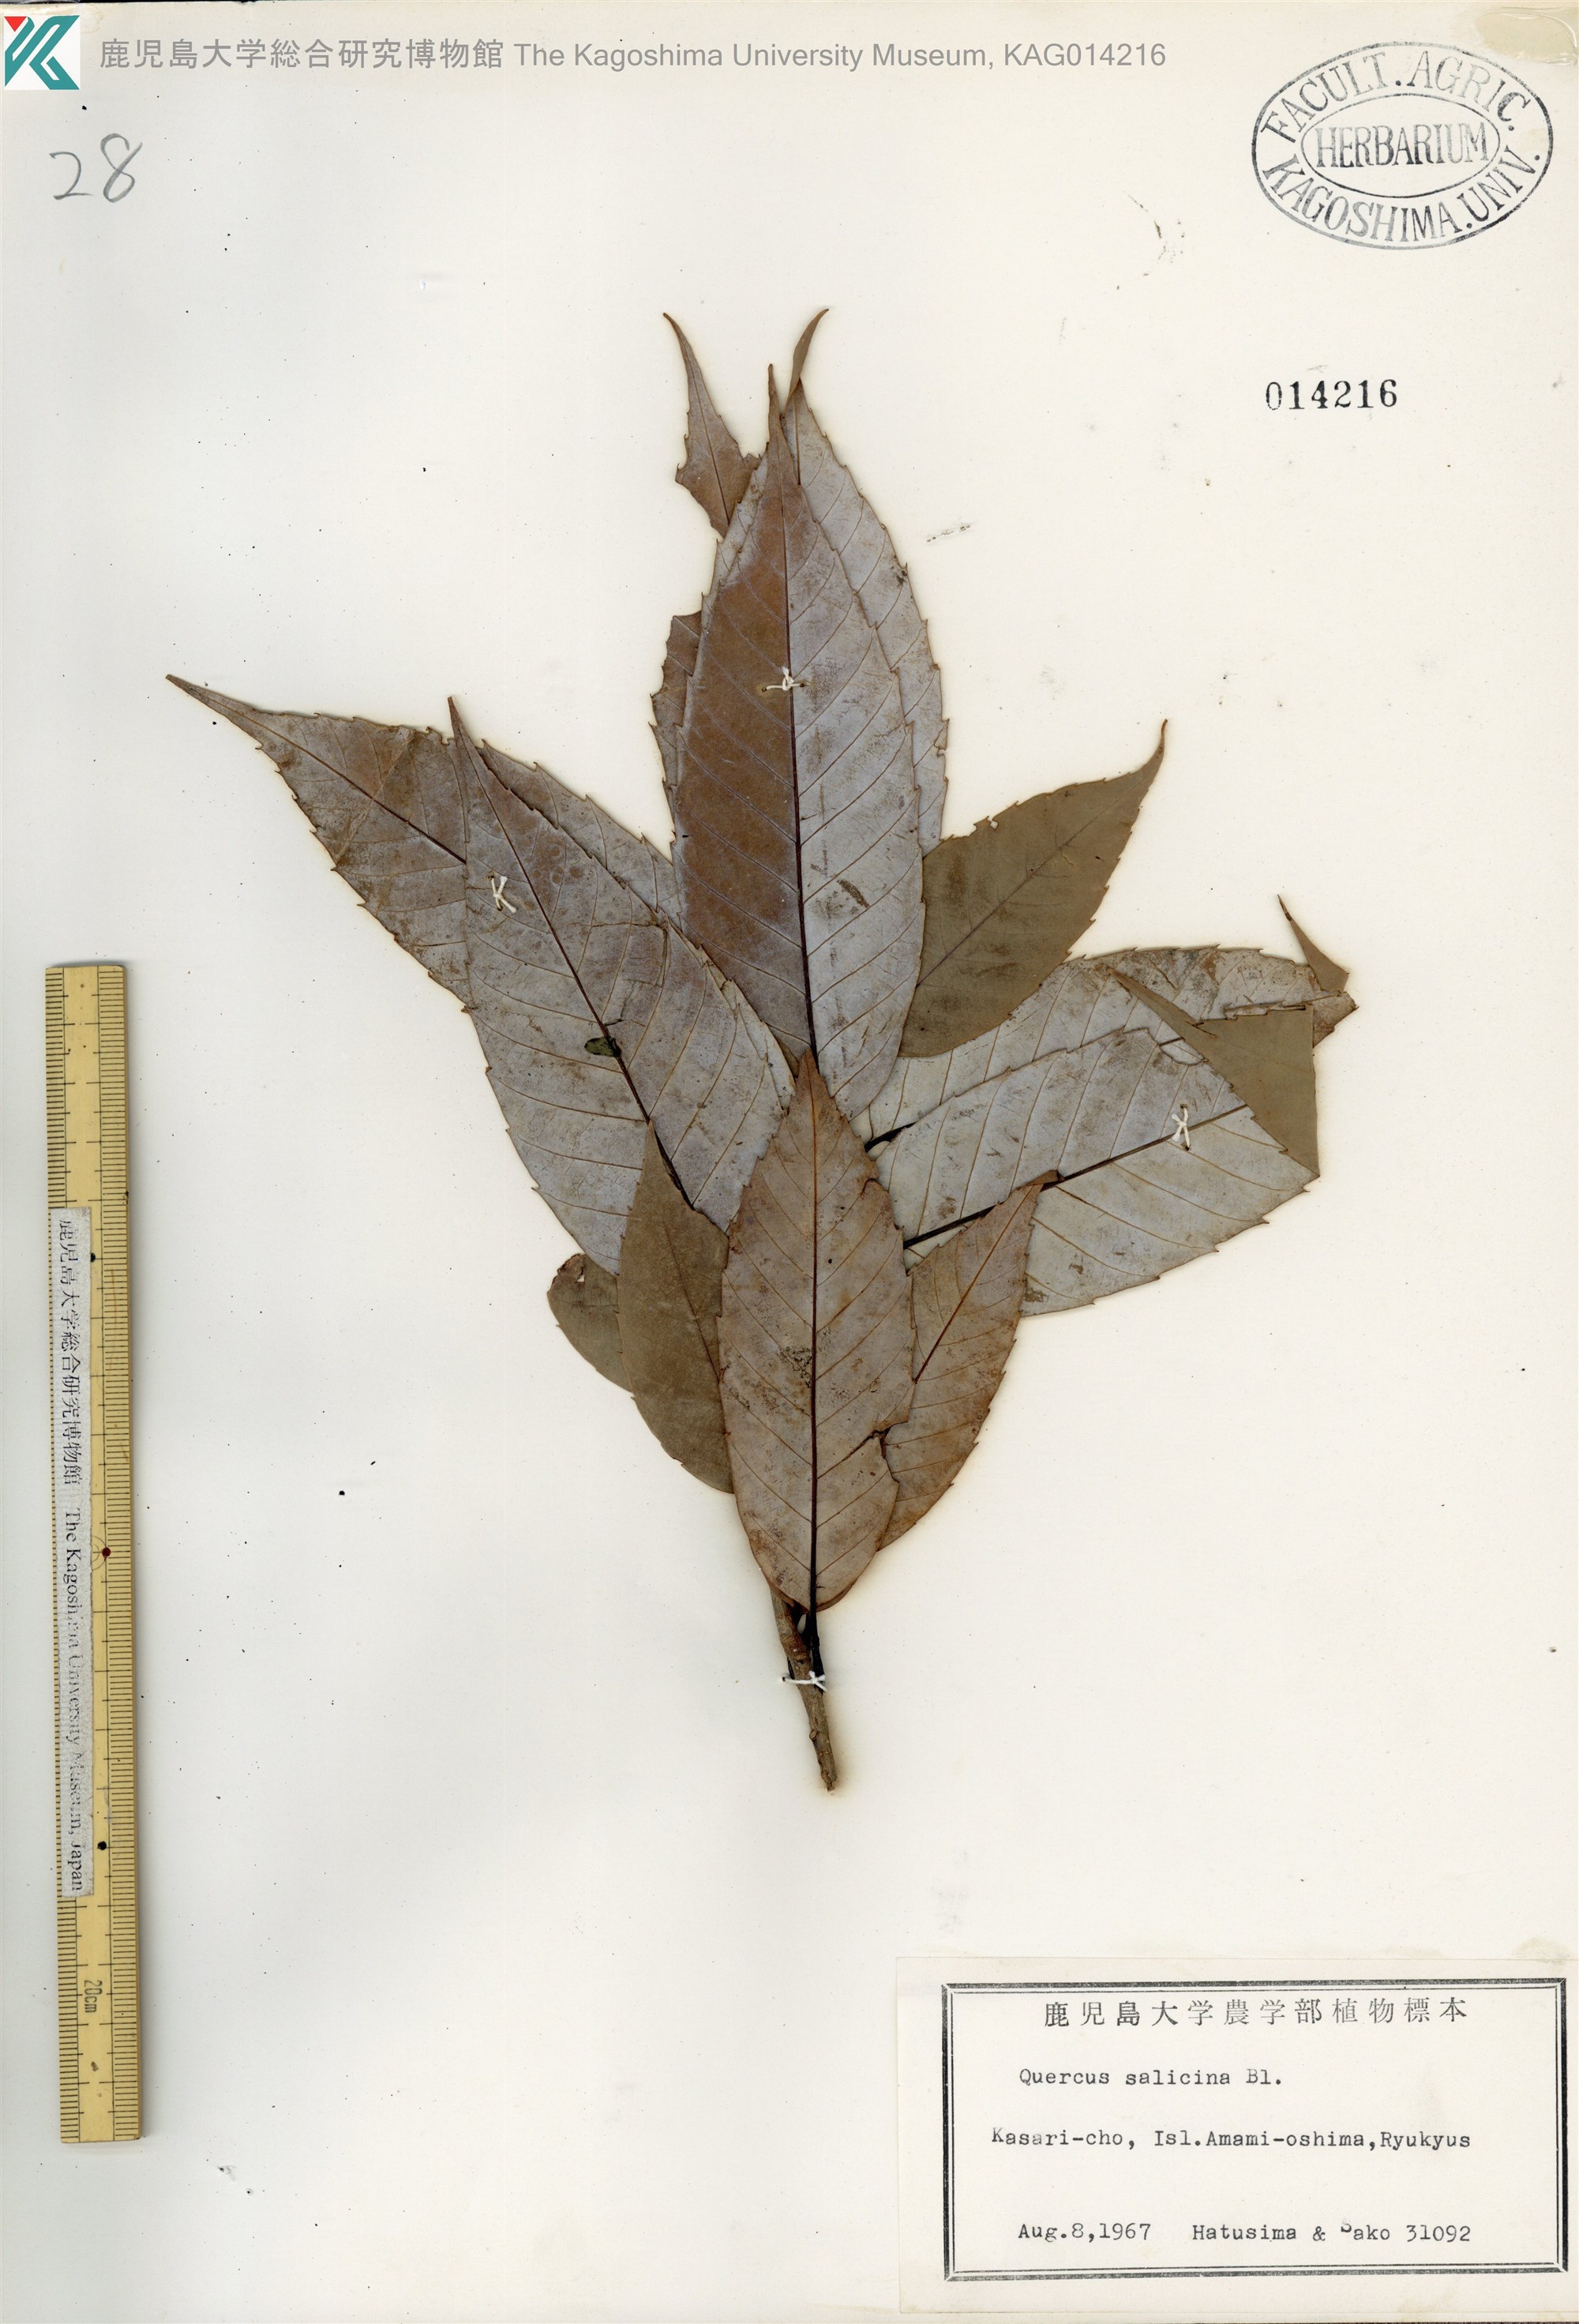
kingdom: Plantae
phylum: Tracheophyta
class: Magnoliopsida
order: Fagales
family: Fagaceae
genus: Quercus
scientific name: Quercus salicina
